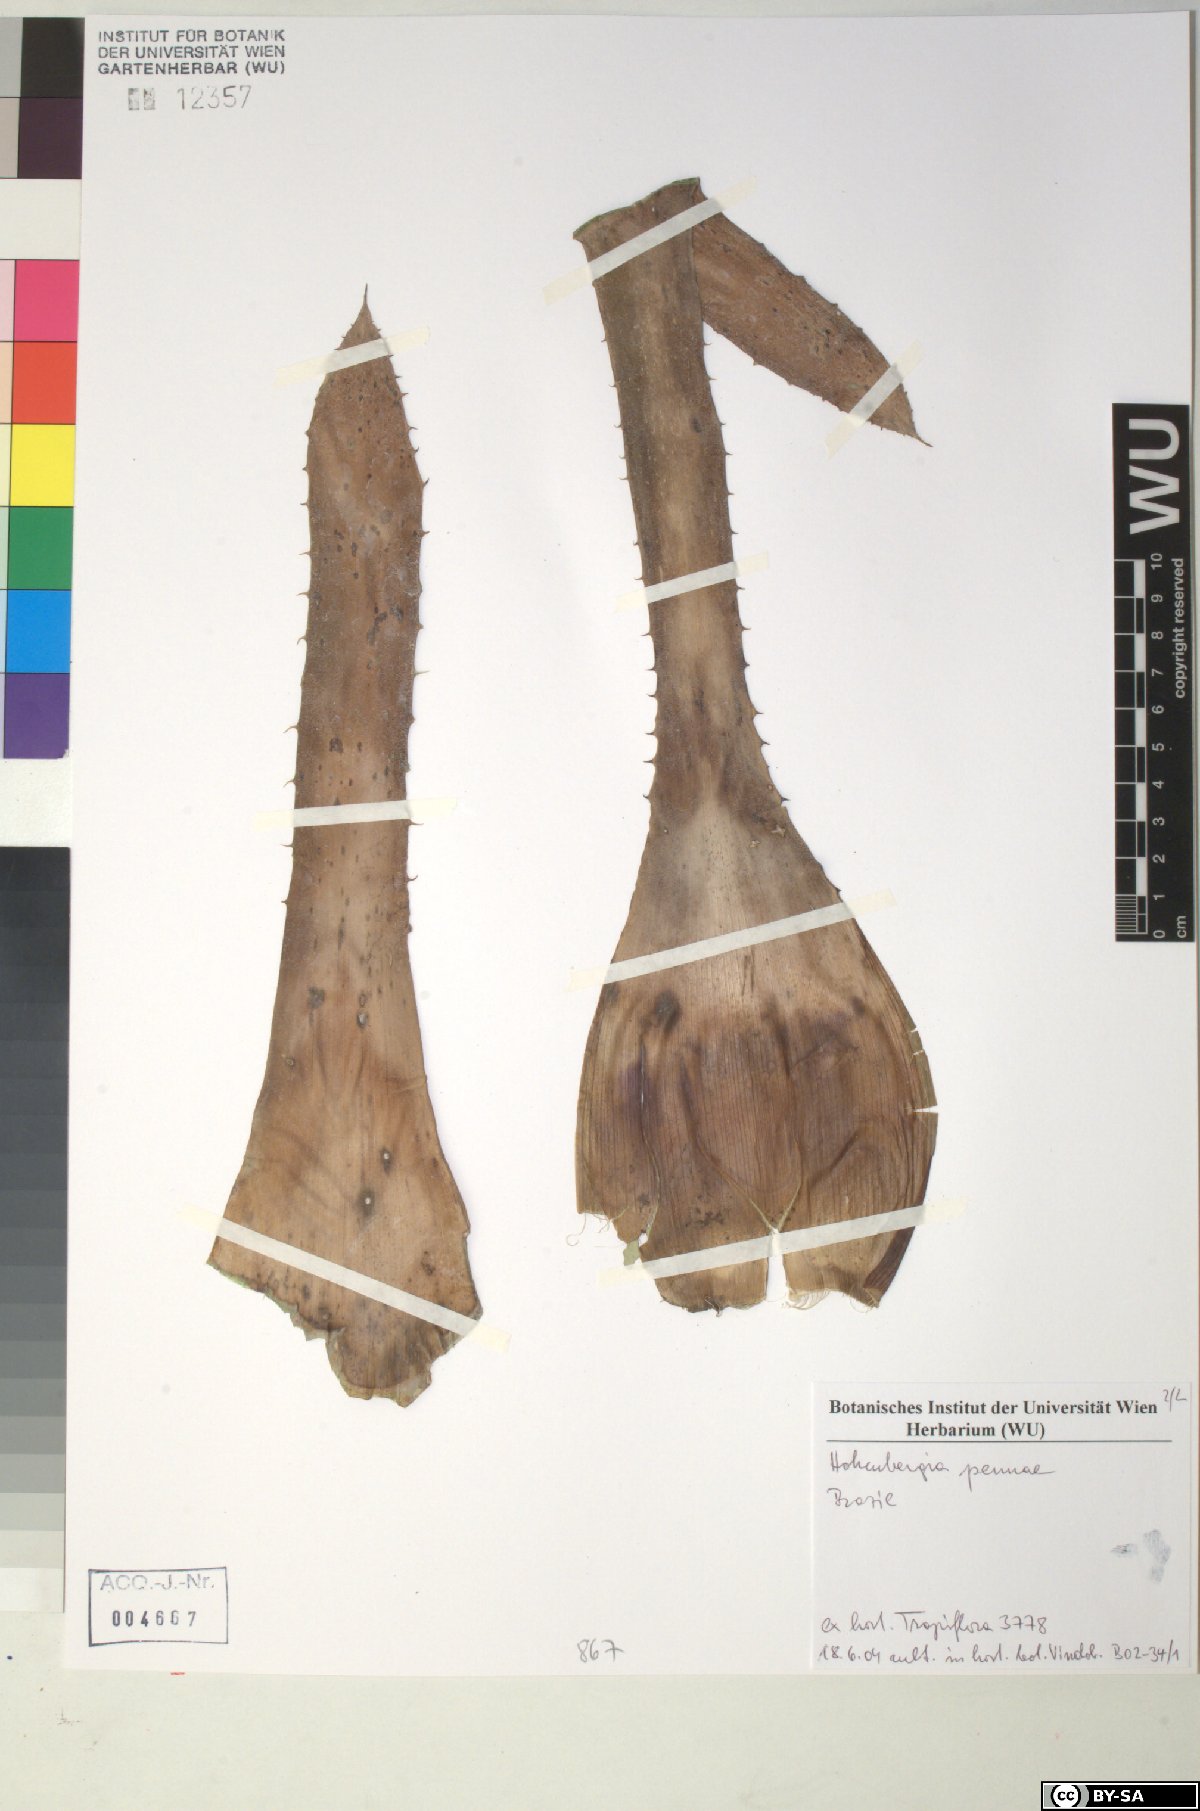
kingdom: Plantae
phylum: Tracheophyta
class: Liliopsida
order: Poales
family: Bromeliaceae
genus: Hohenbergia
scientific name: Hohenbergia pennae
